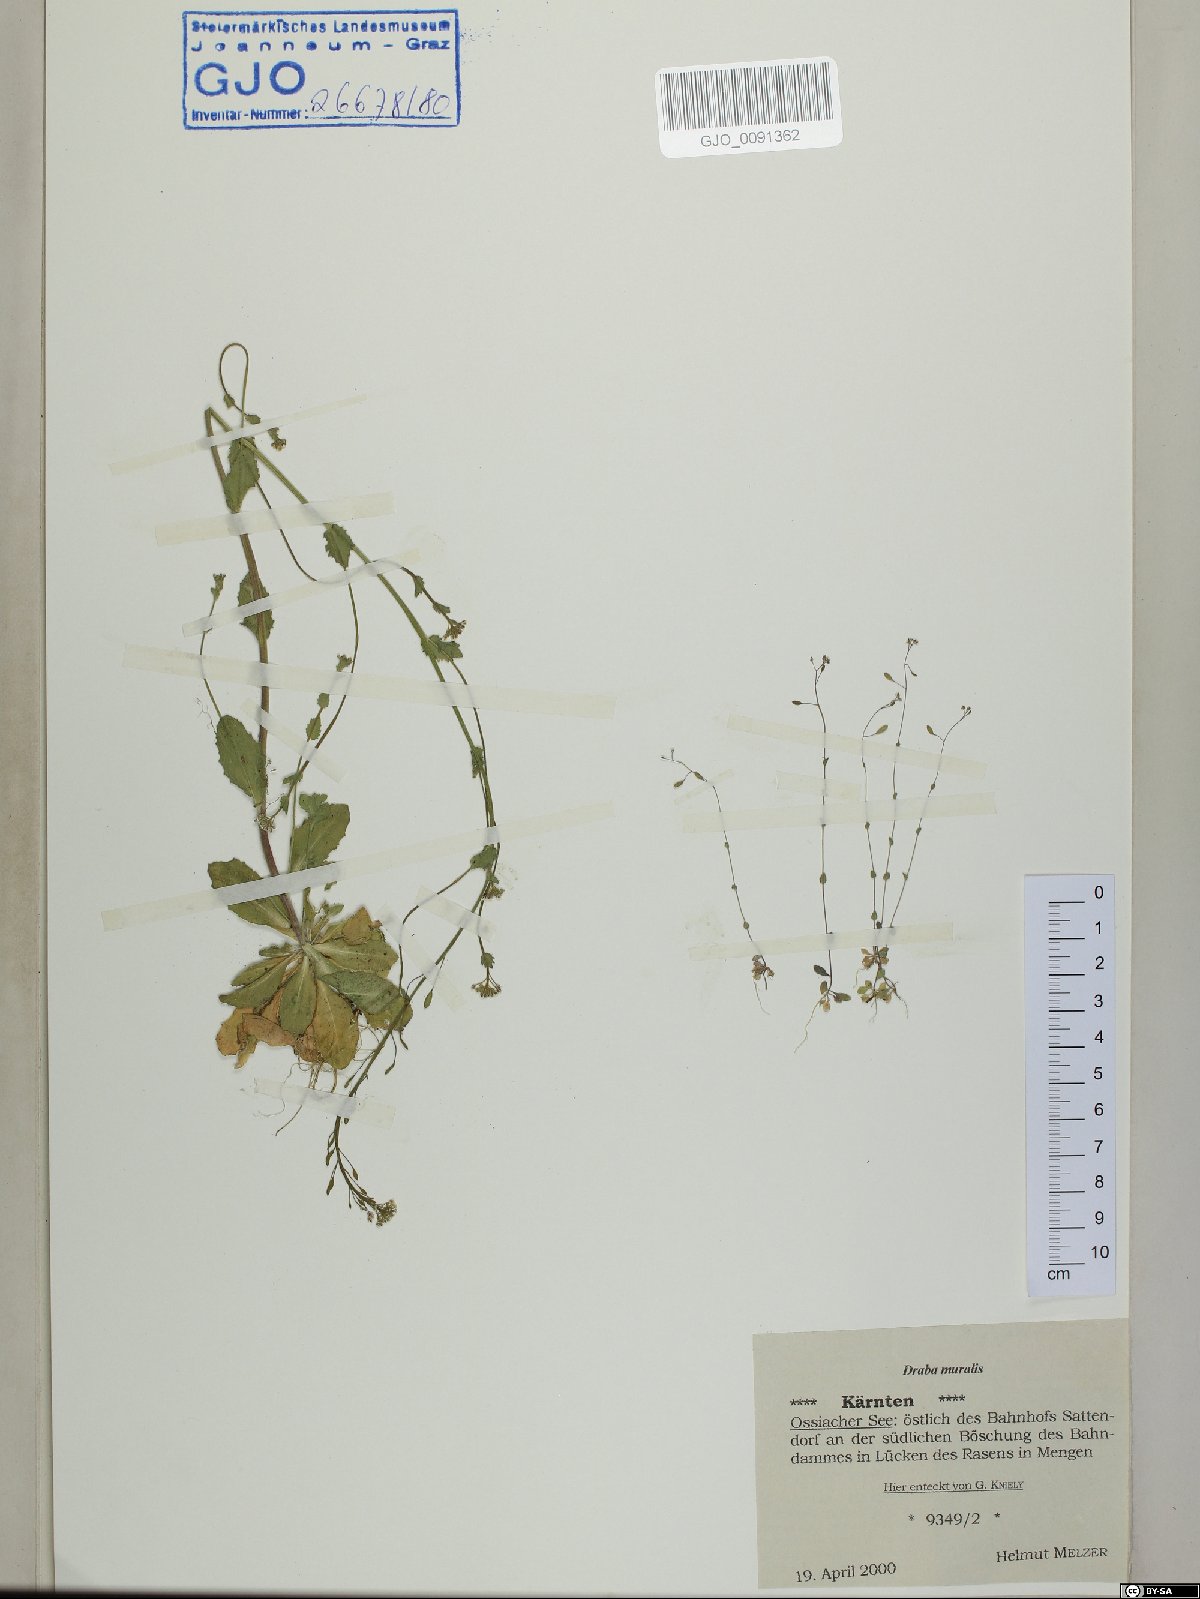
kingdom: Plantae
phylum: Tracheophyta
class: Magnoliopsida
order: Brassicales
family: Brassicaceae
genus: Drabella
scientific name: Drabella muralis
